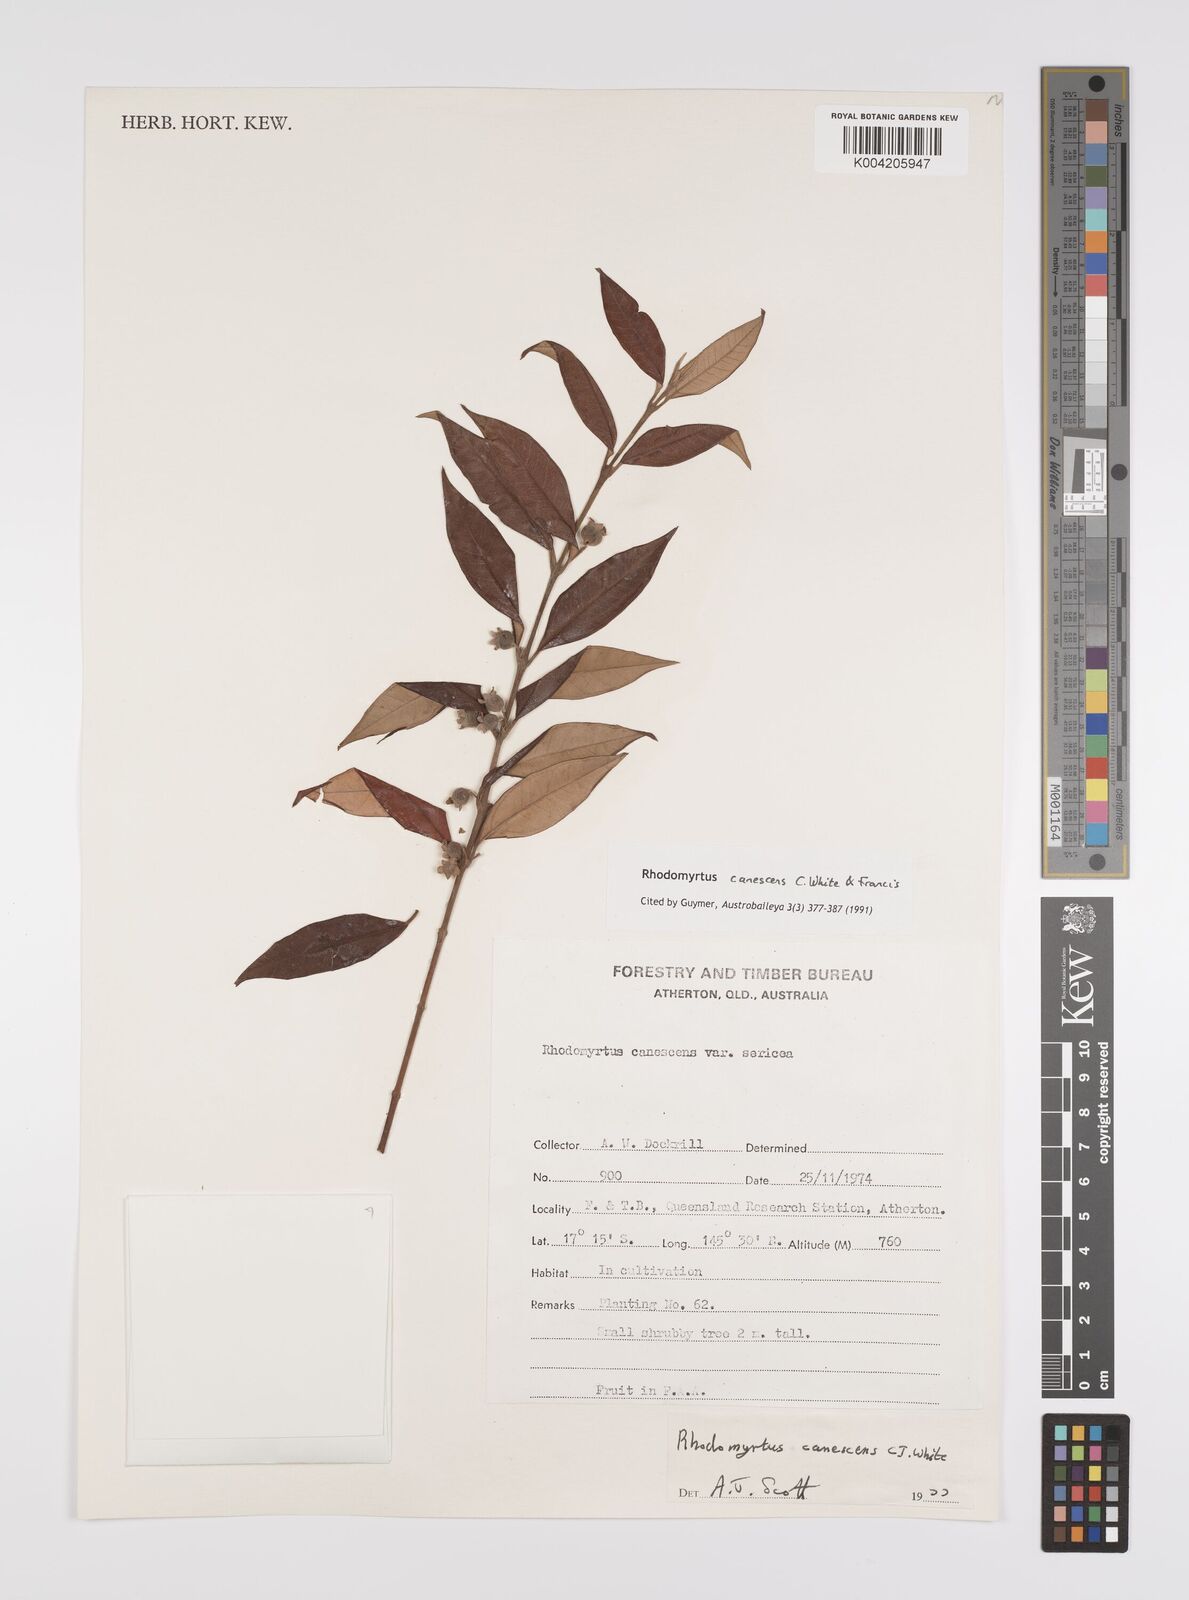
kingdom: Plantae
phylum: Tracheophyta
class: Magnoliopsida
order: Myrtales
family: Myrtaceae
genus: Rhodomyrtus
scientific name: Rhodomyrtus trineura
